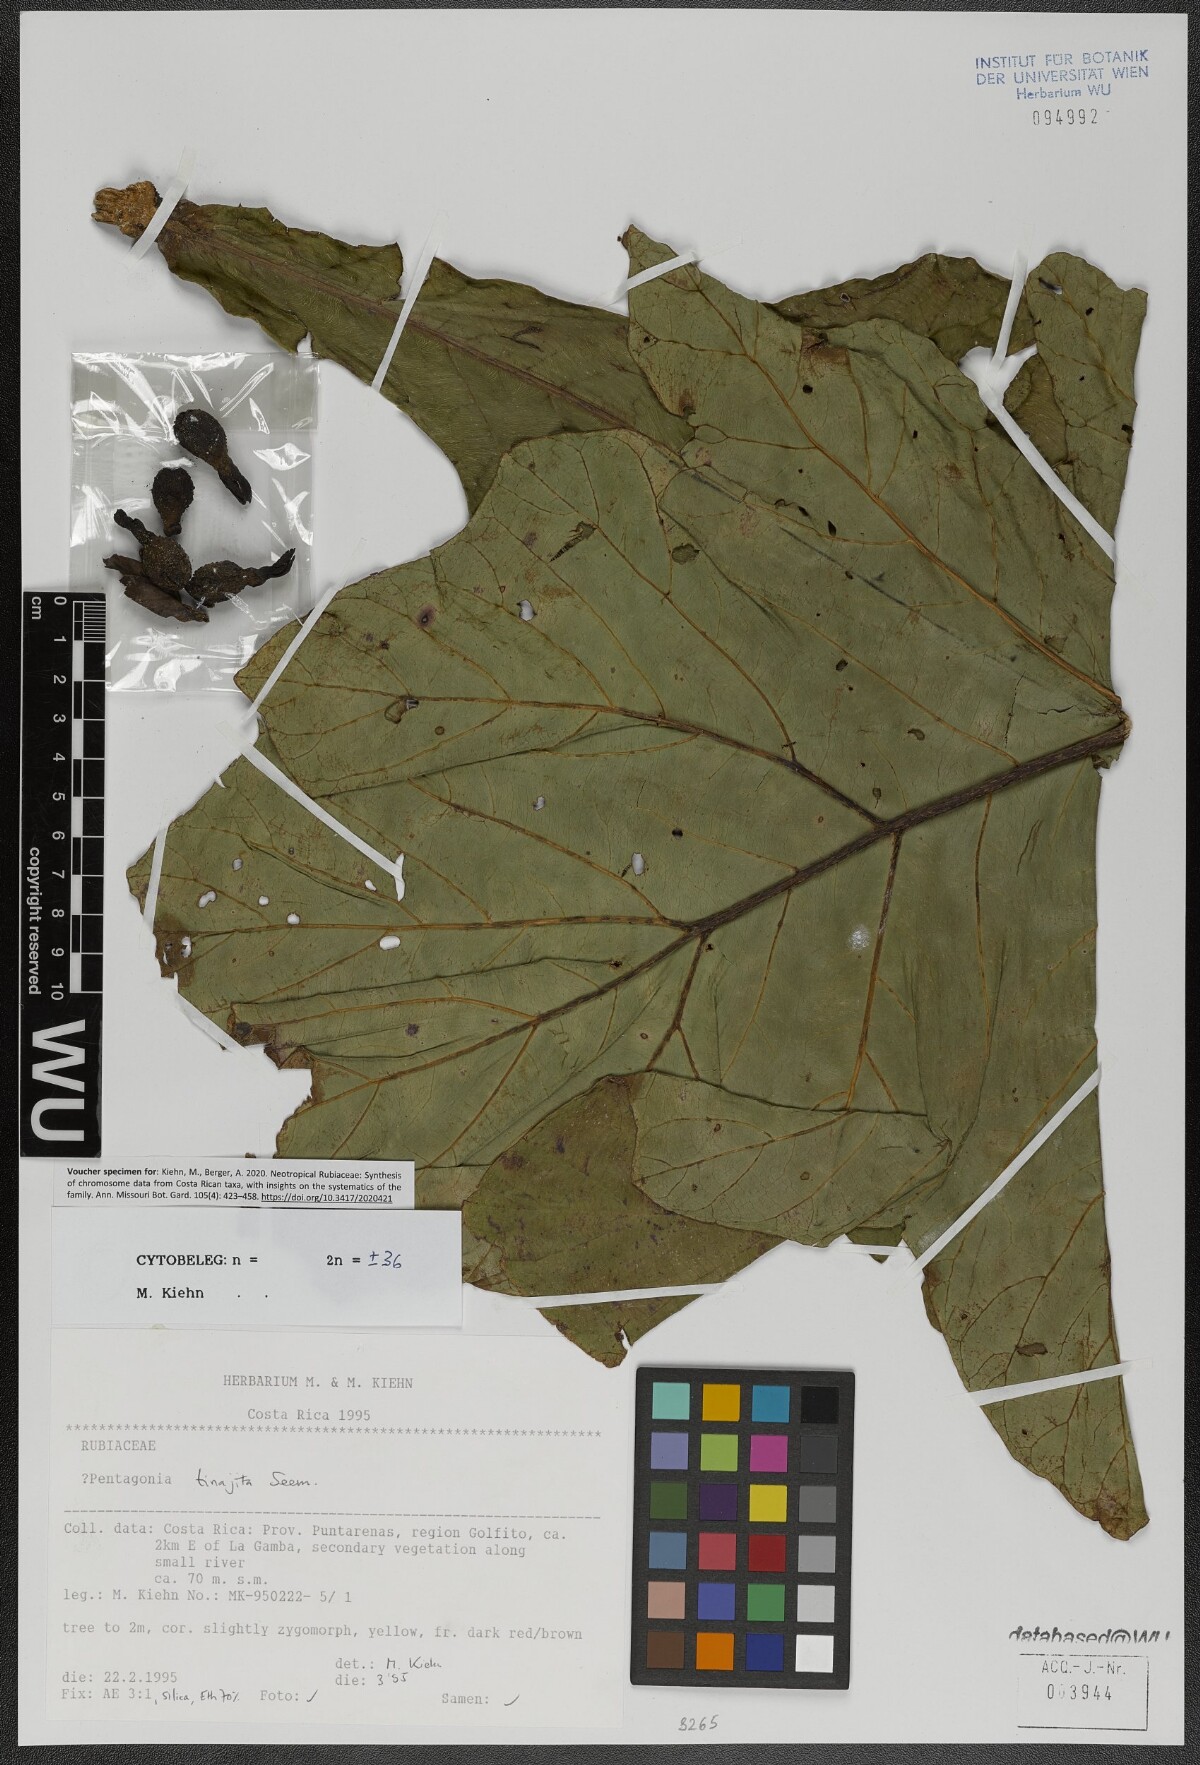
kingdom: Plantae
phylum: Tracheophyta
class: Magnoliopsida
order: Gentianales
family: Rubiaceae
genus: Pentagonia
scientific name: Pentagonia tinajita
